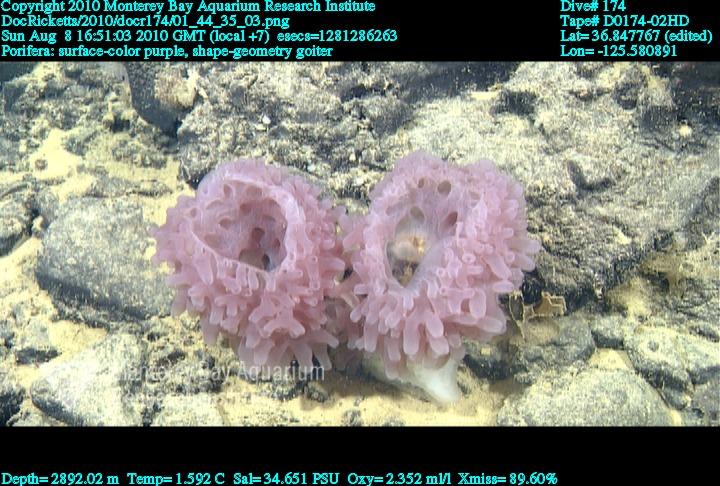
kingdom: Animalia
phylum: Porifera
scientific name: Porifera
